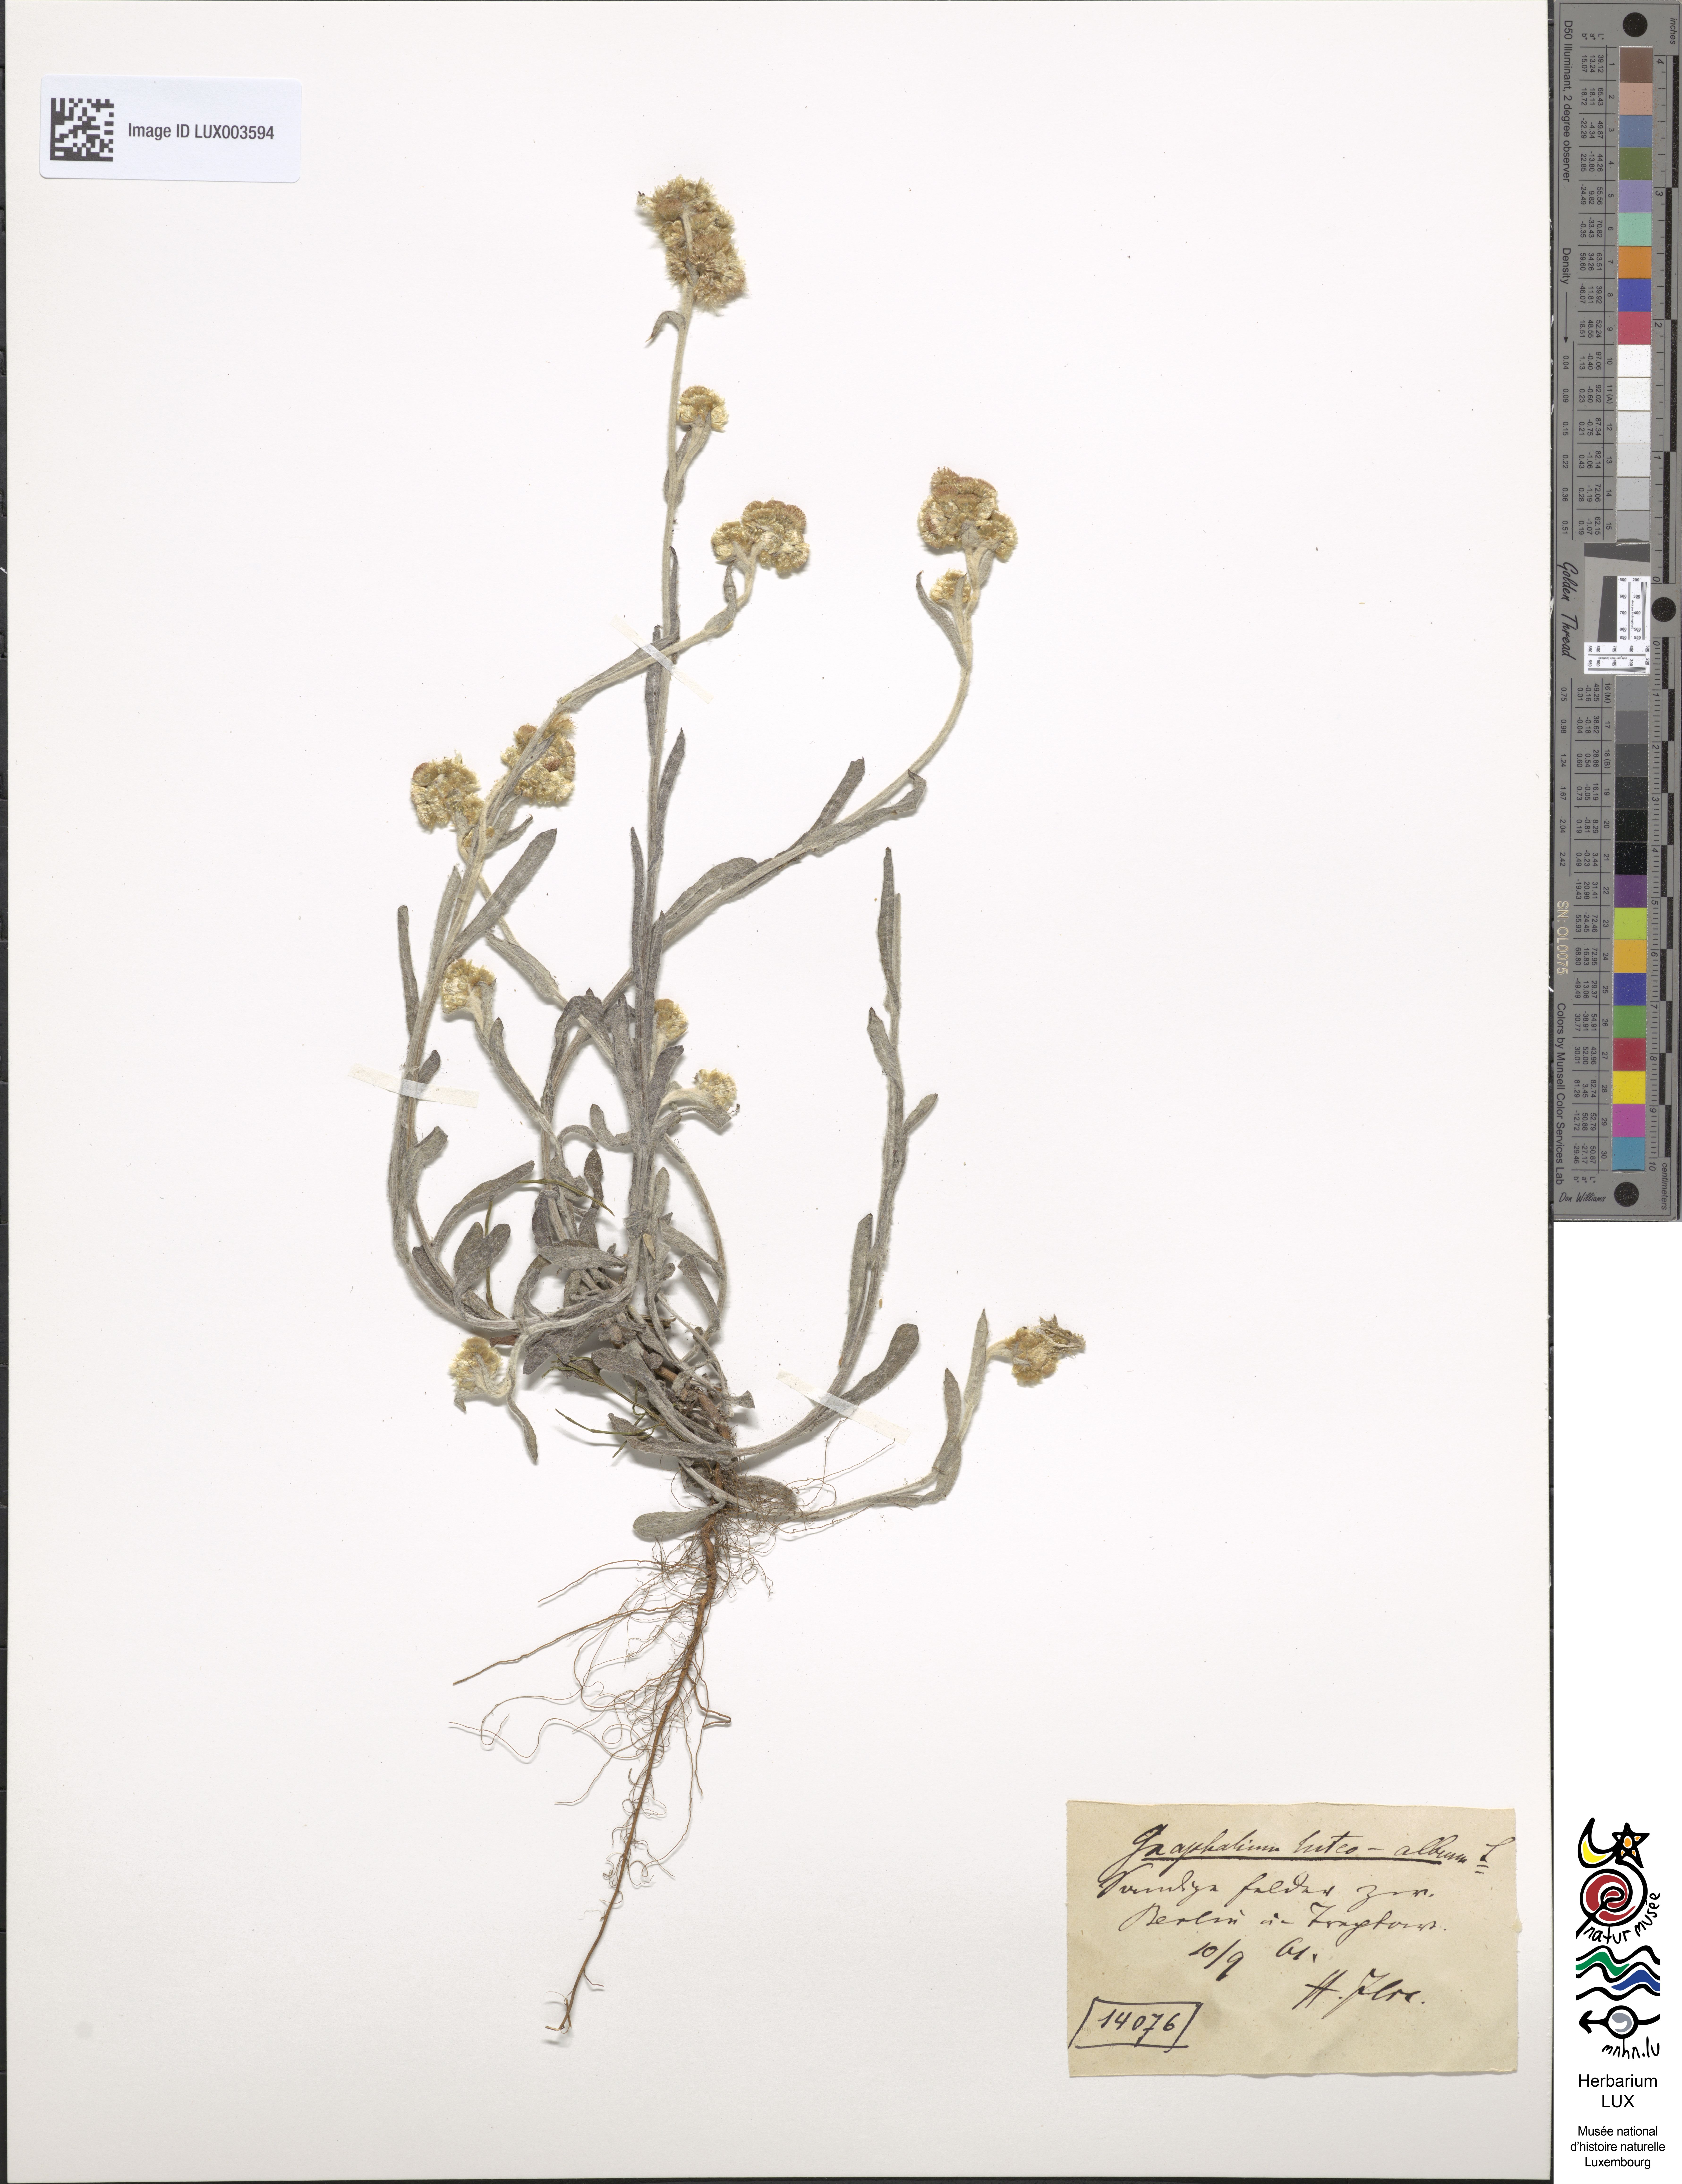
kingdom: Plantae
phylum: Tracheophyta
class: Magnoliopsida
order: Asterales
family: Asteraceae
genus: Helichrysum
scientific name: Helichrysum luteoalbum
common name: Daisy
